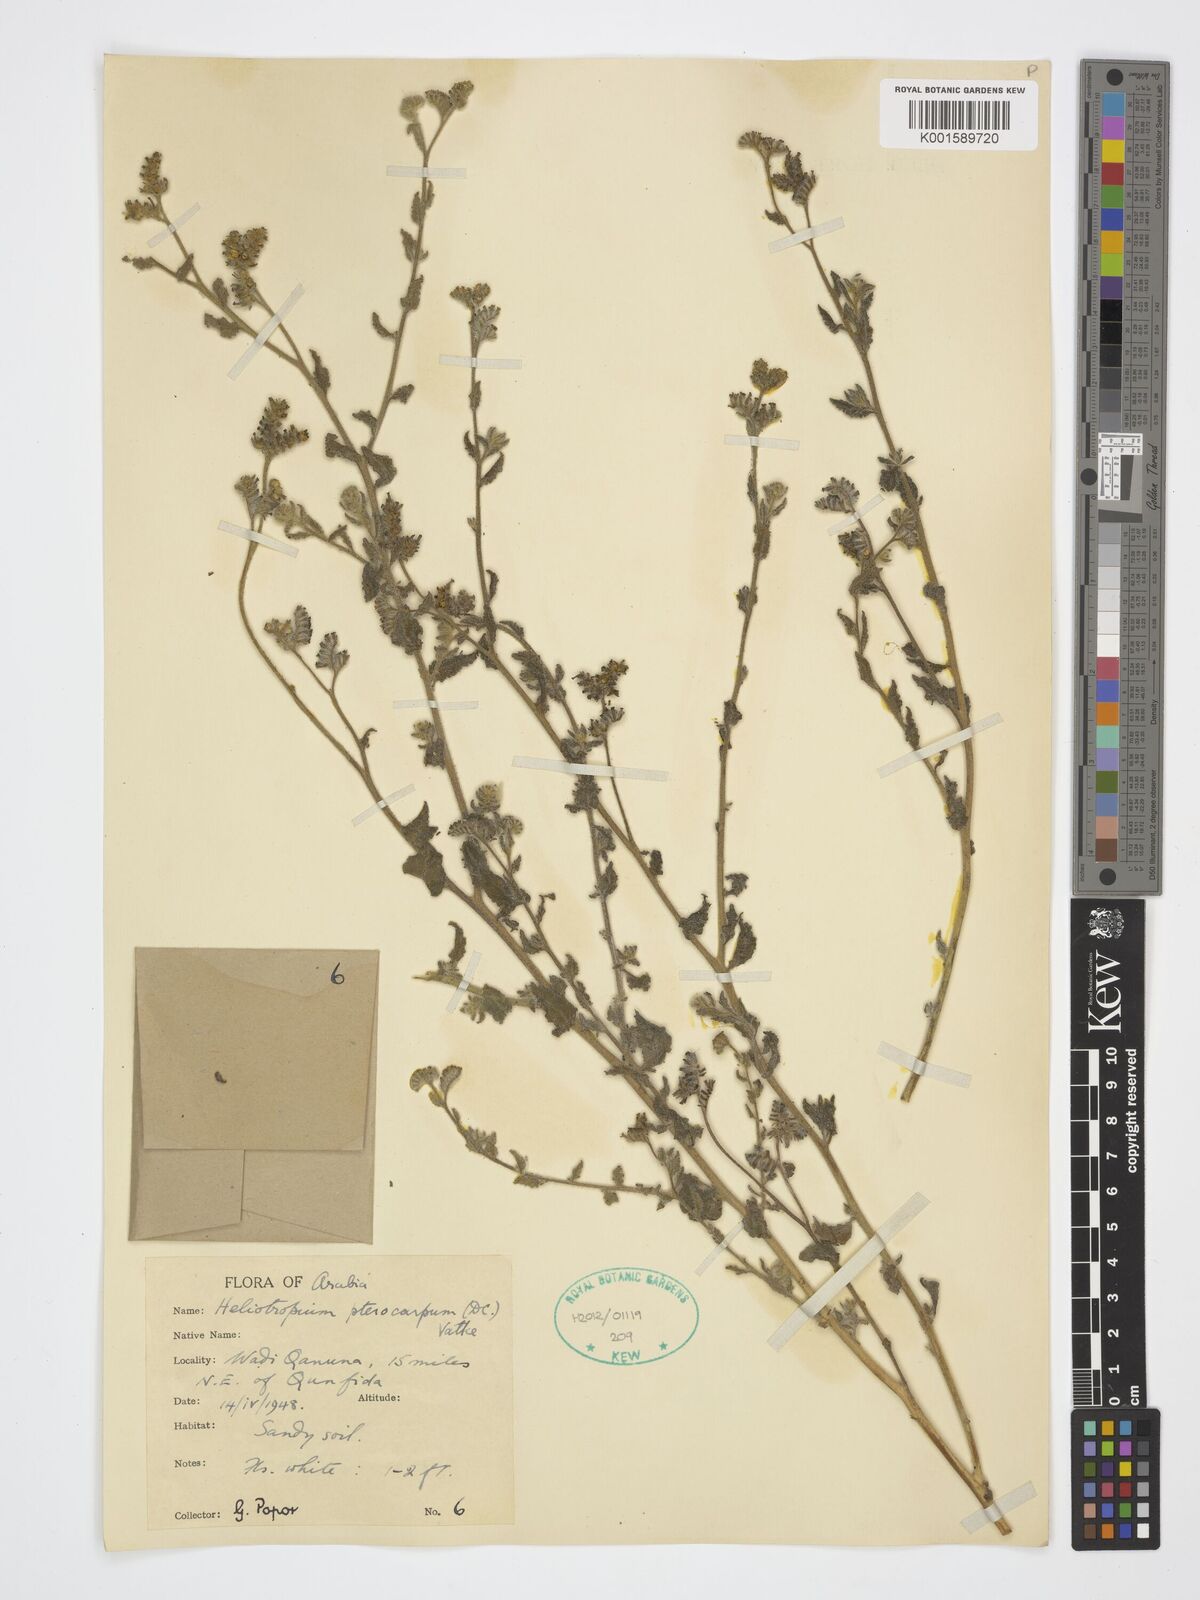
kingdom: Plantae
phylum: Tracheophyta
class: Magnoliopsida
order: Boraginales
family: Heliotropiaceae
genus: Heliotropium
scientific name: Heliotropium pterocarpum
